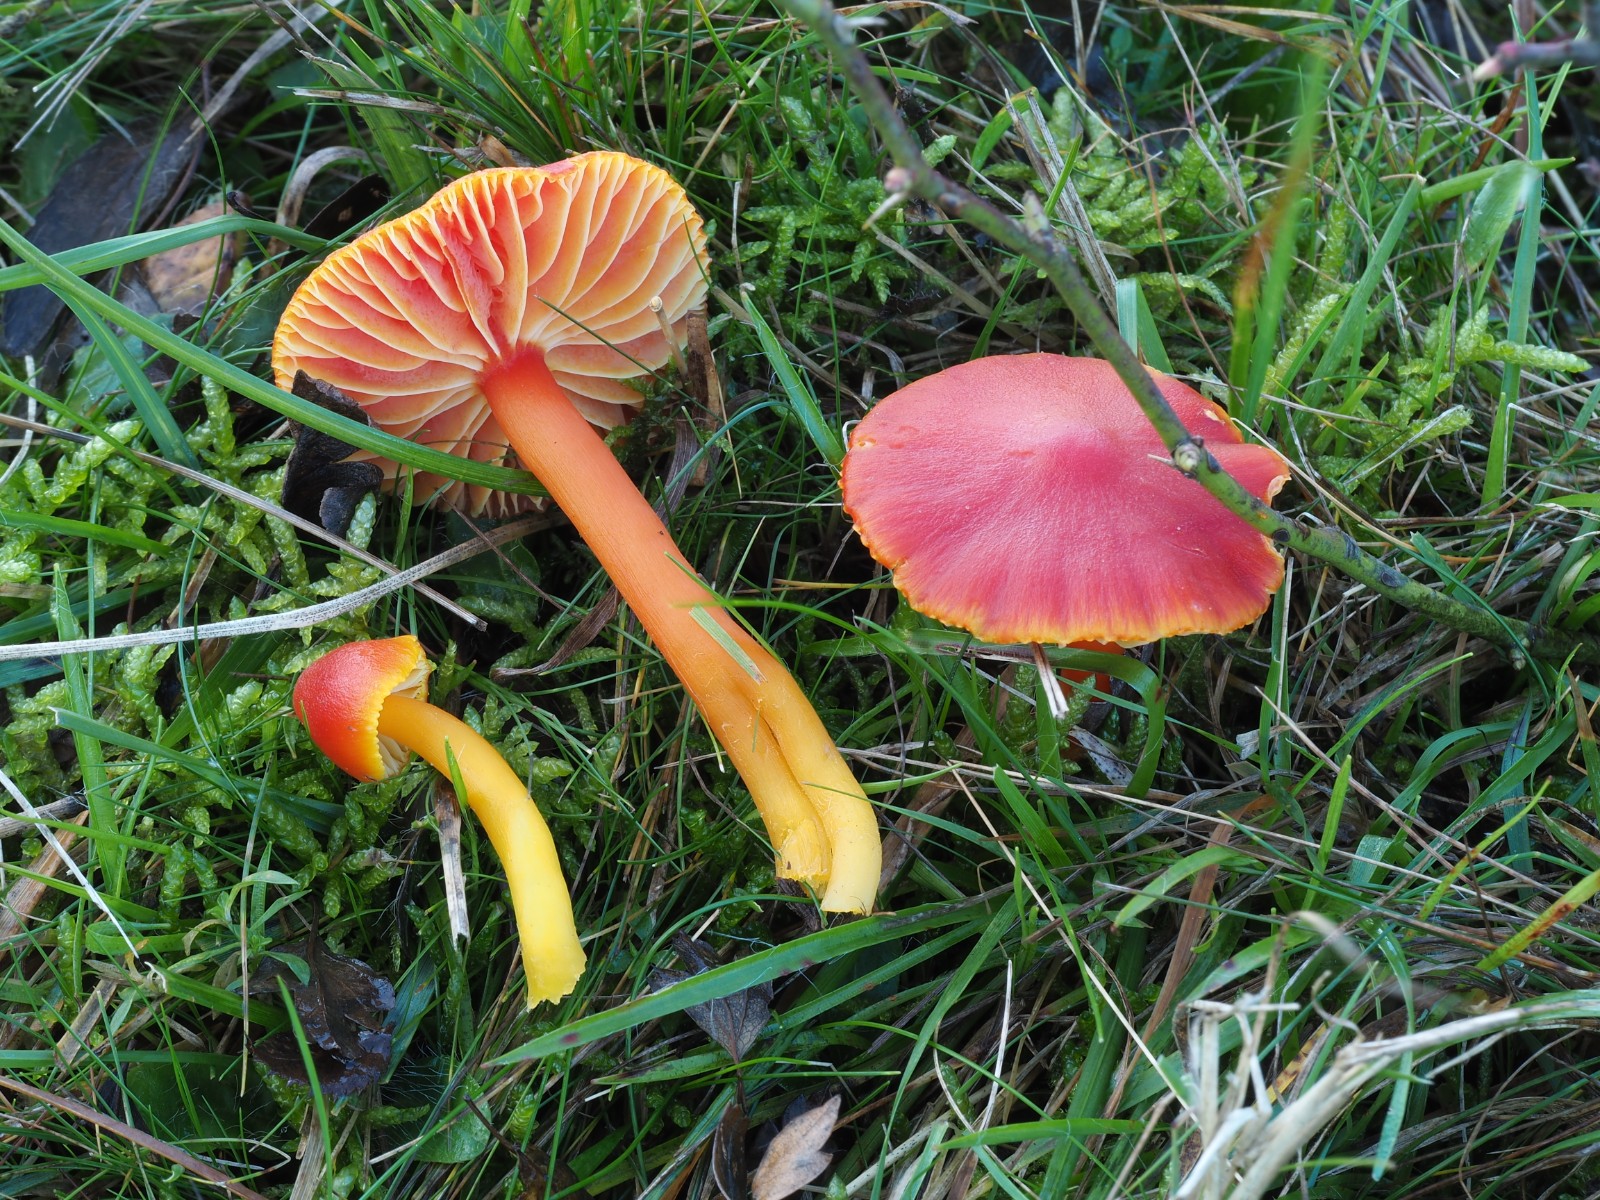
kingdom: Fungi
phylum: Basidiomycota
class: Agaricomycetes
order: Agaricales
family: Hygrophoraceae
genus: Hygrocybe
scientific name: Hygrocybe coccinea
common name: cinnober-vokshat
